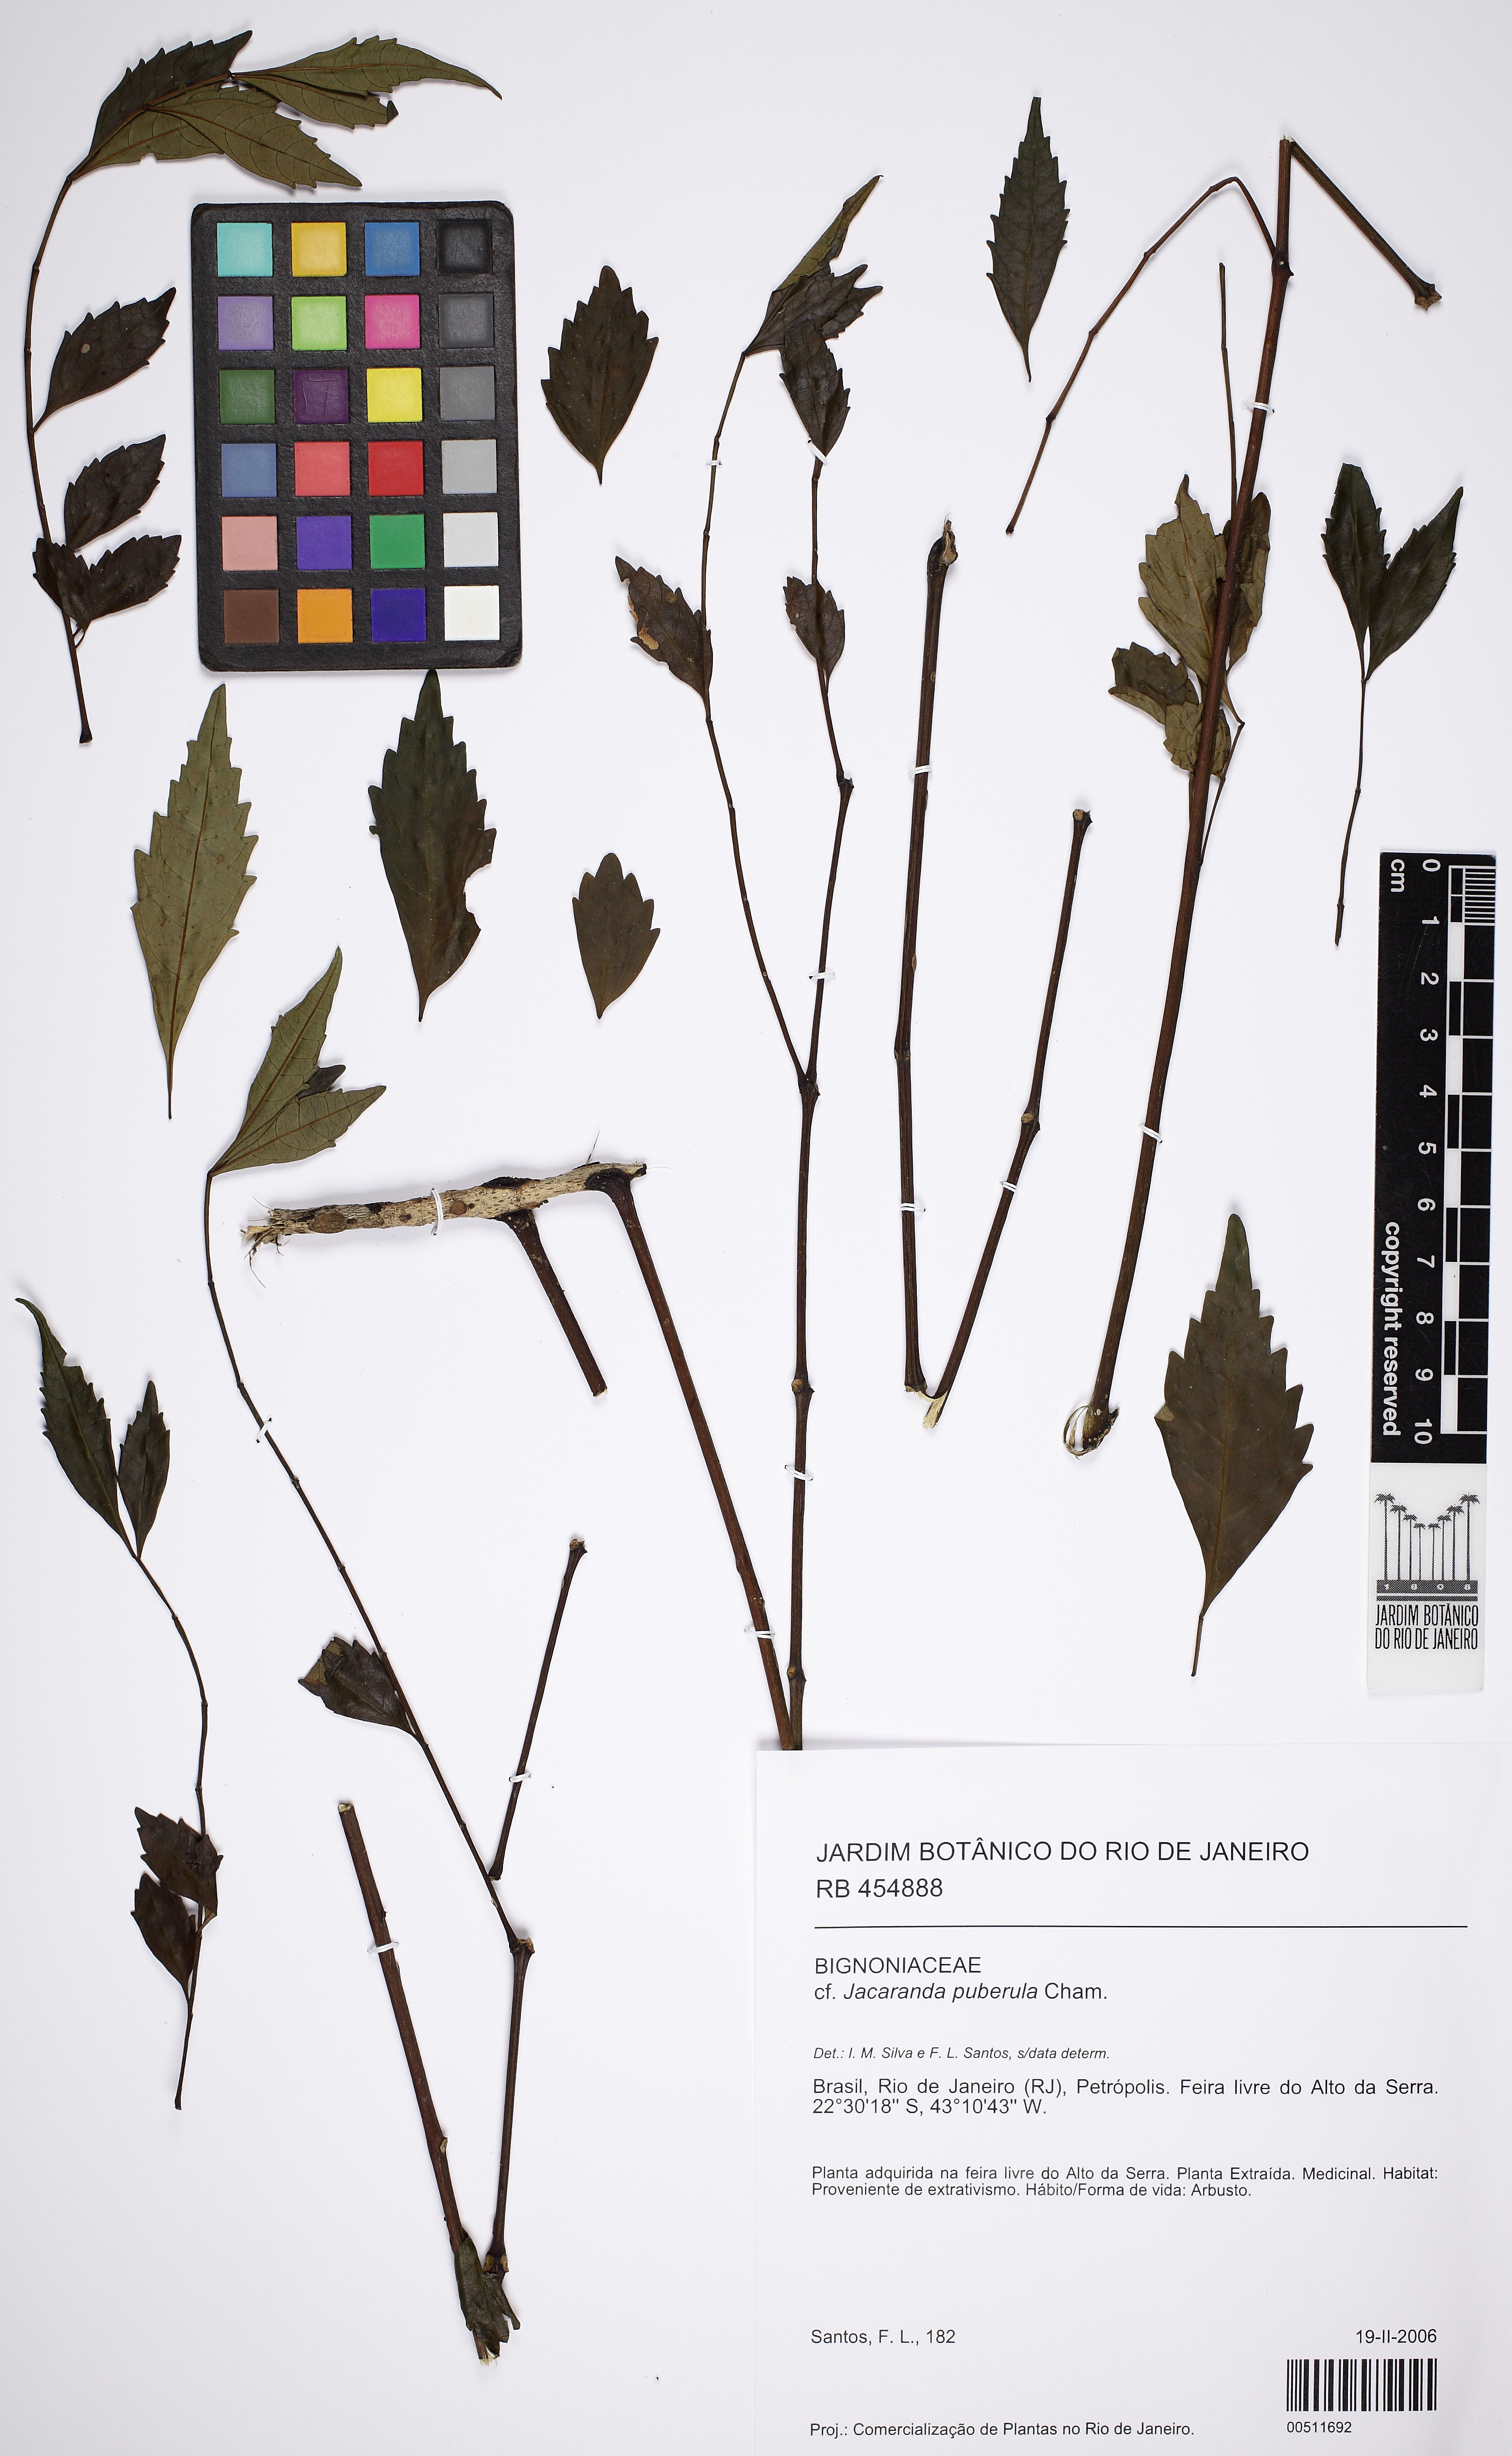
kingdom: Plantae
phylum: Tracheophyta
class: Magnoliopsida
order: Lamiales
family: Bignoniaceae
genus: Jacaranda
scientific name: Jacaranda puberula
